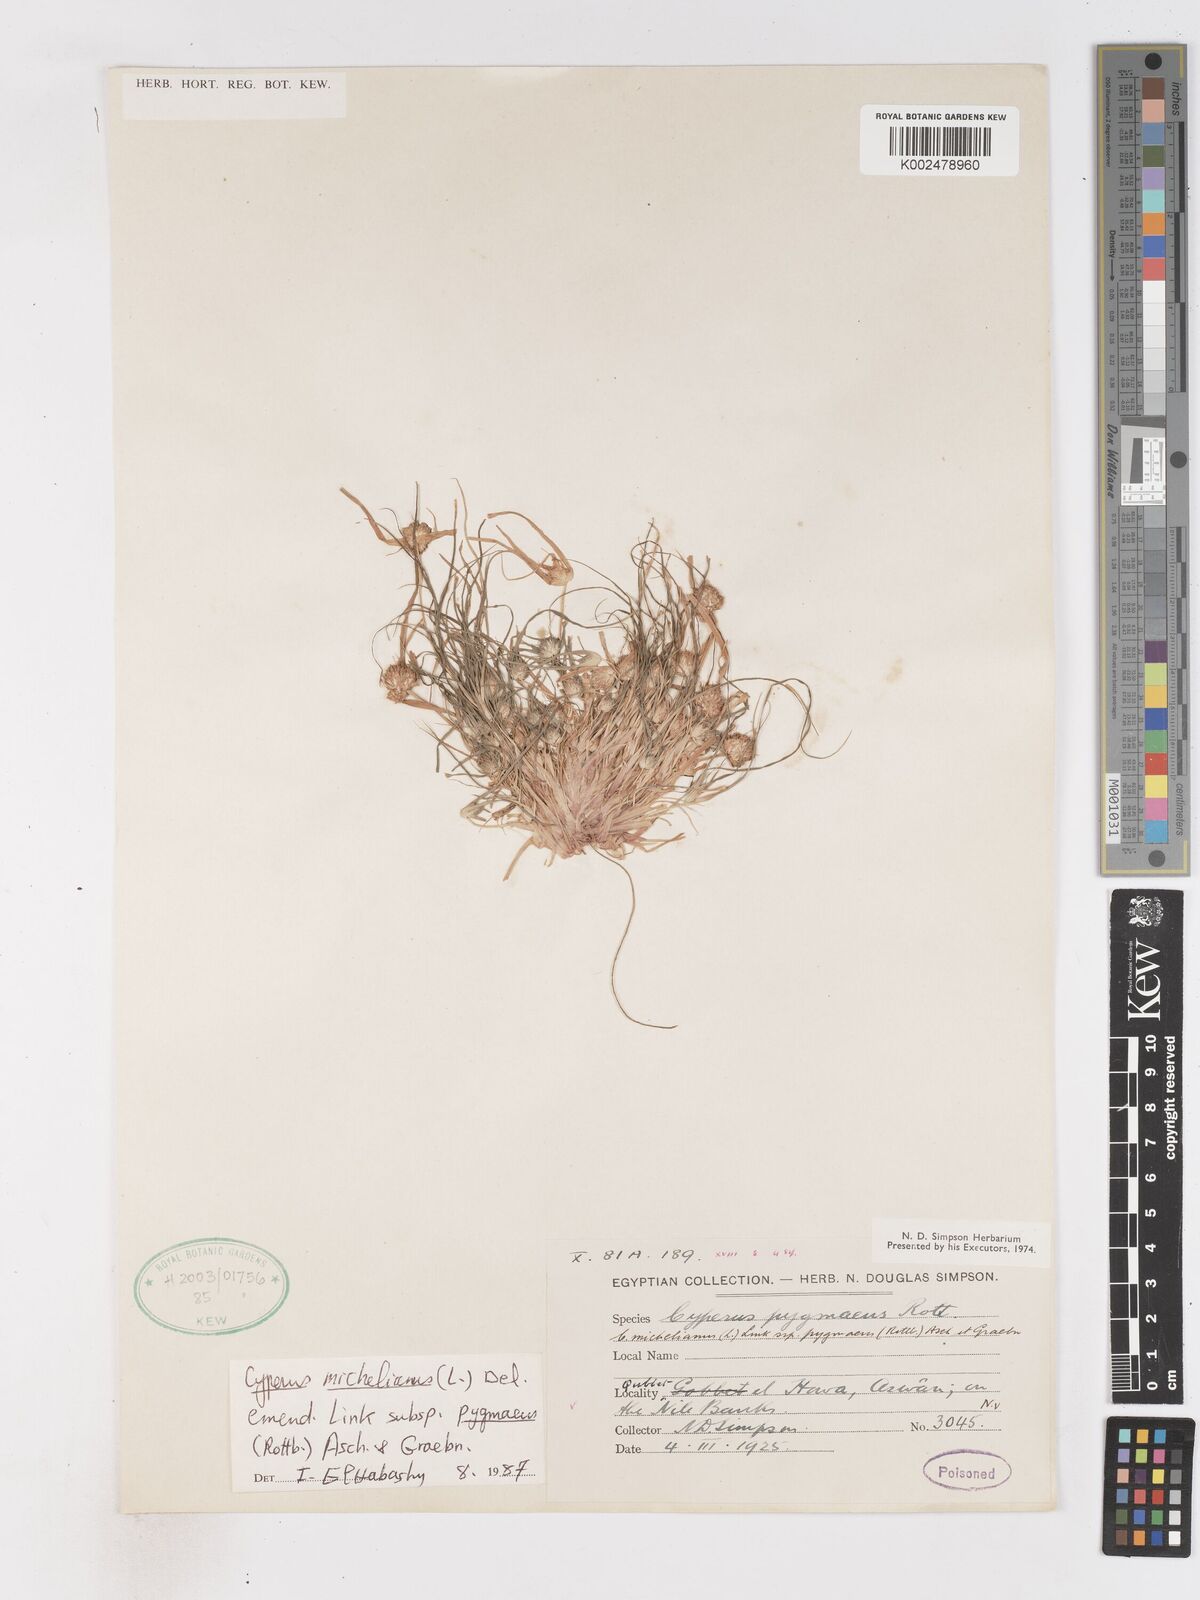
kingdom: Plantae
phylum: Tracheophyta
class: Liliopsida
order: Poales
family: Cyperaceae
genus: Cyperus
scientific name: Cyperus michelianus
